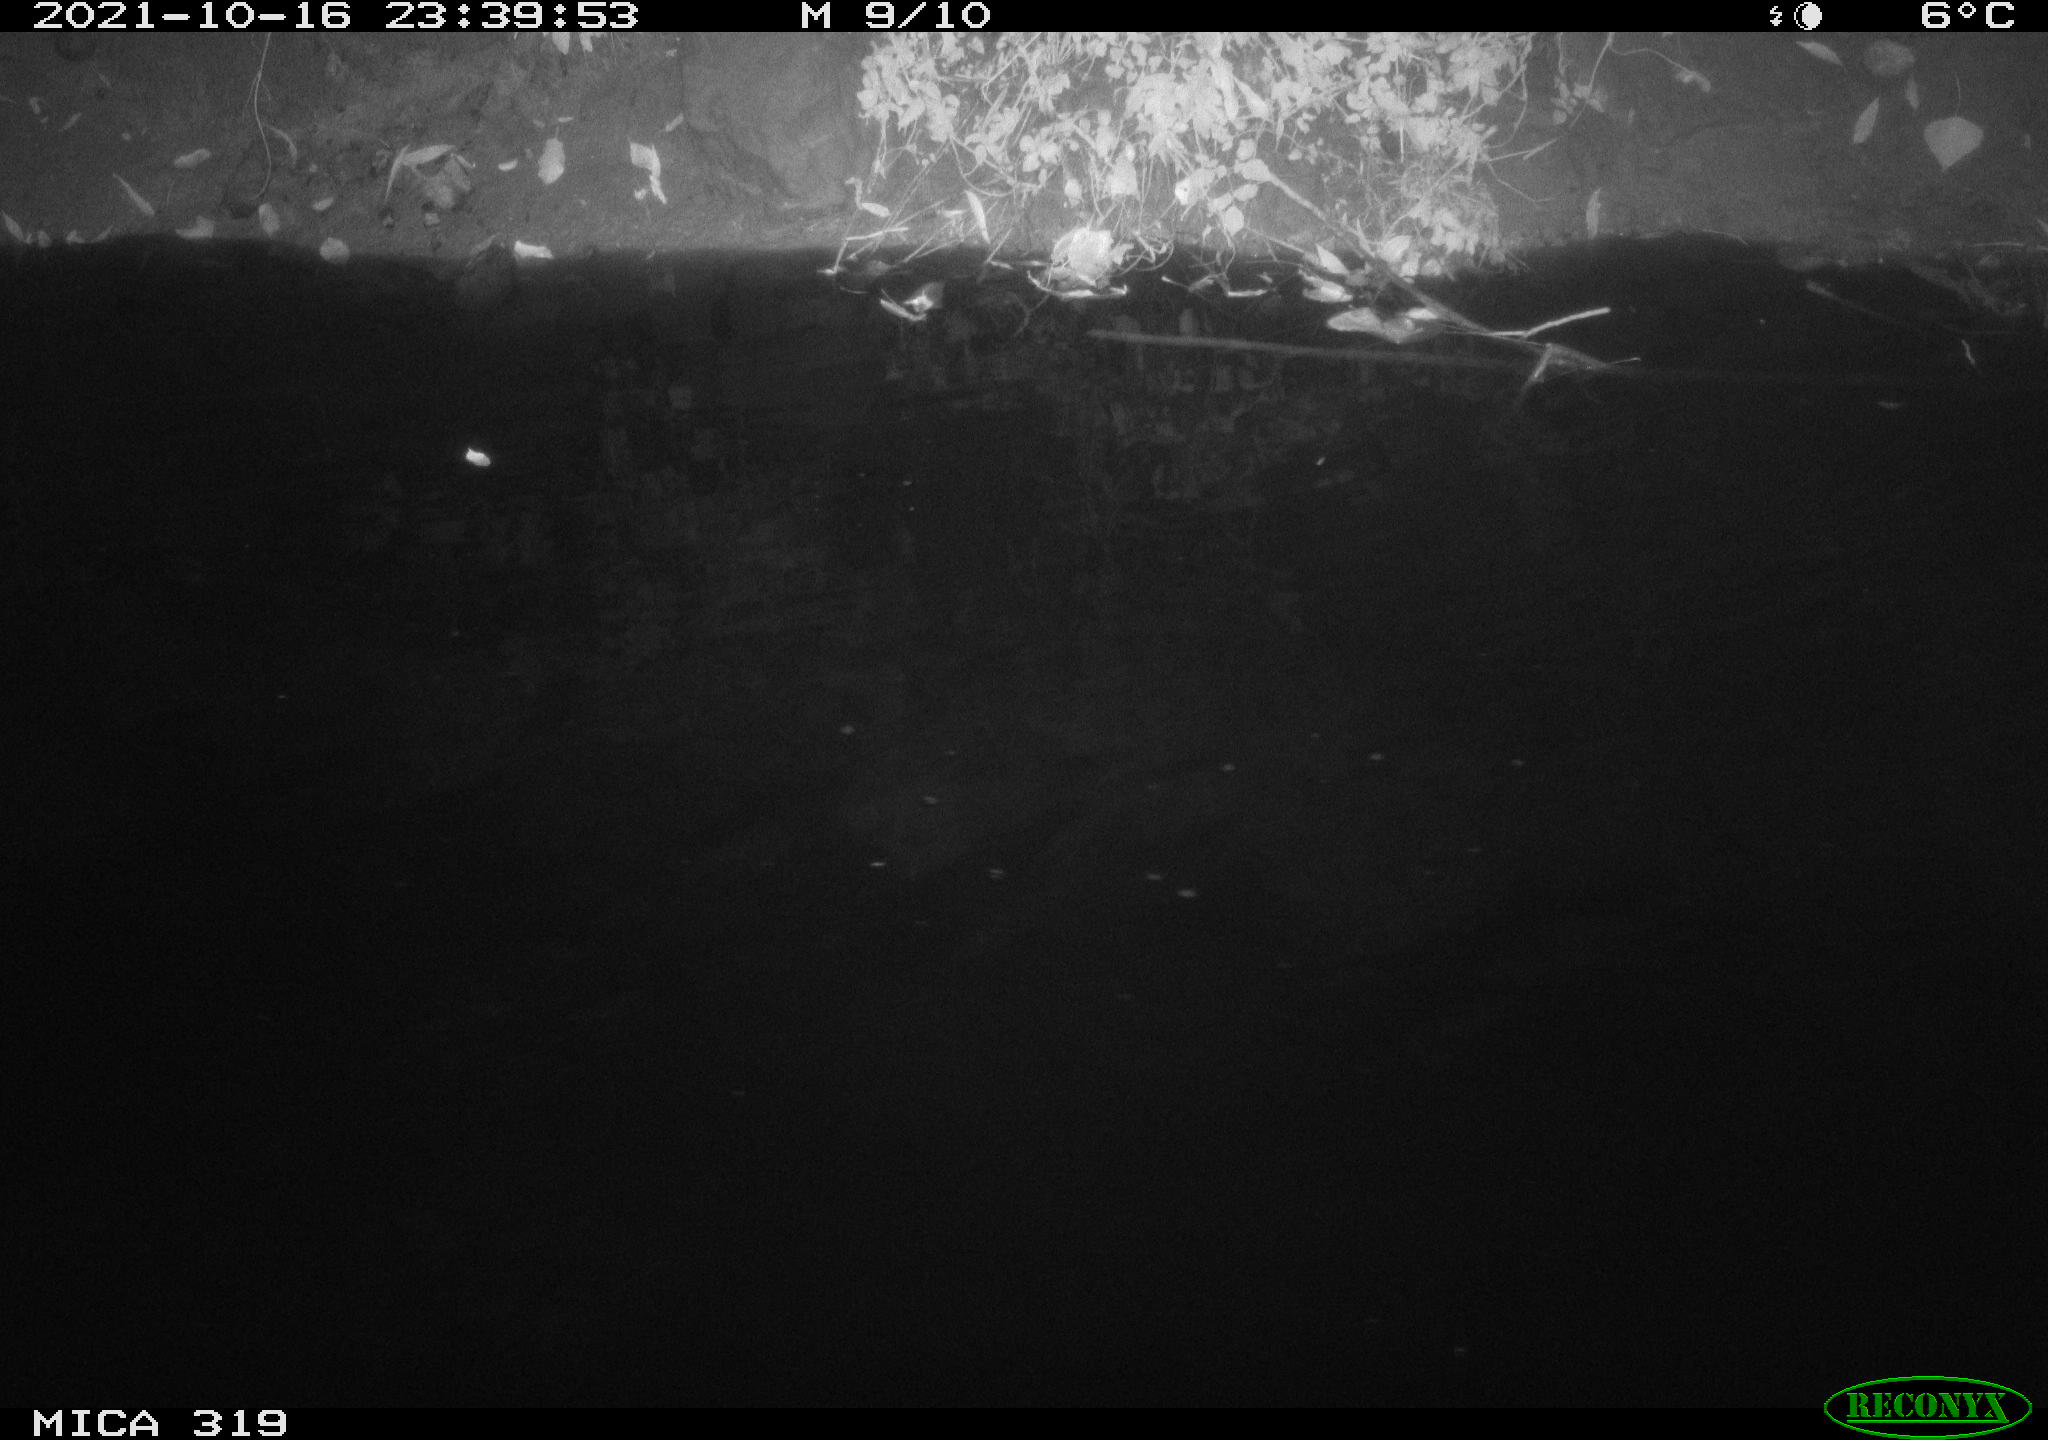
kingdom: Animalia
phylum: Chordata
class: Aves
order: Anseriformes
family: Anatidae
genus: Anas
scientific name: Anas platyrhynchos
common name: Mallard
